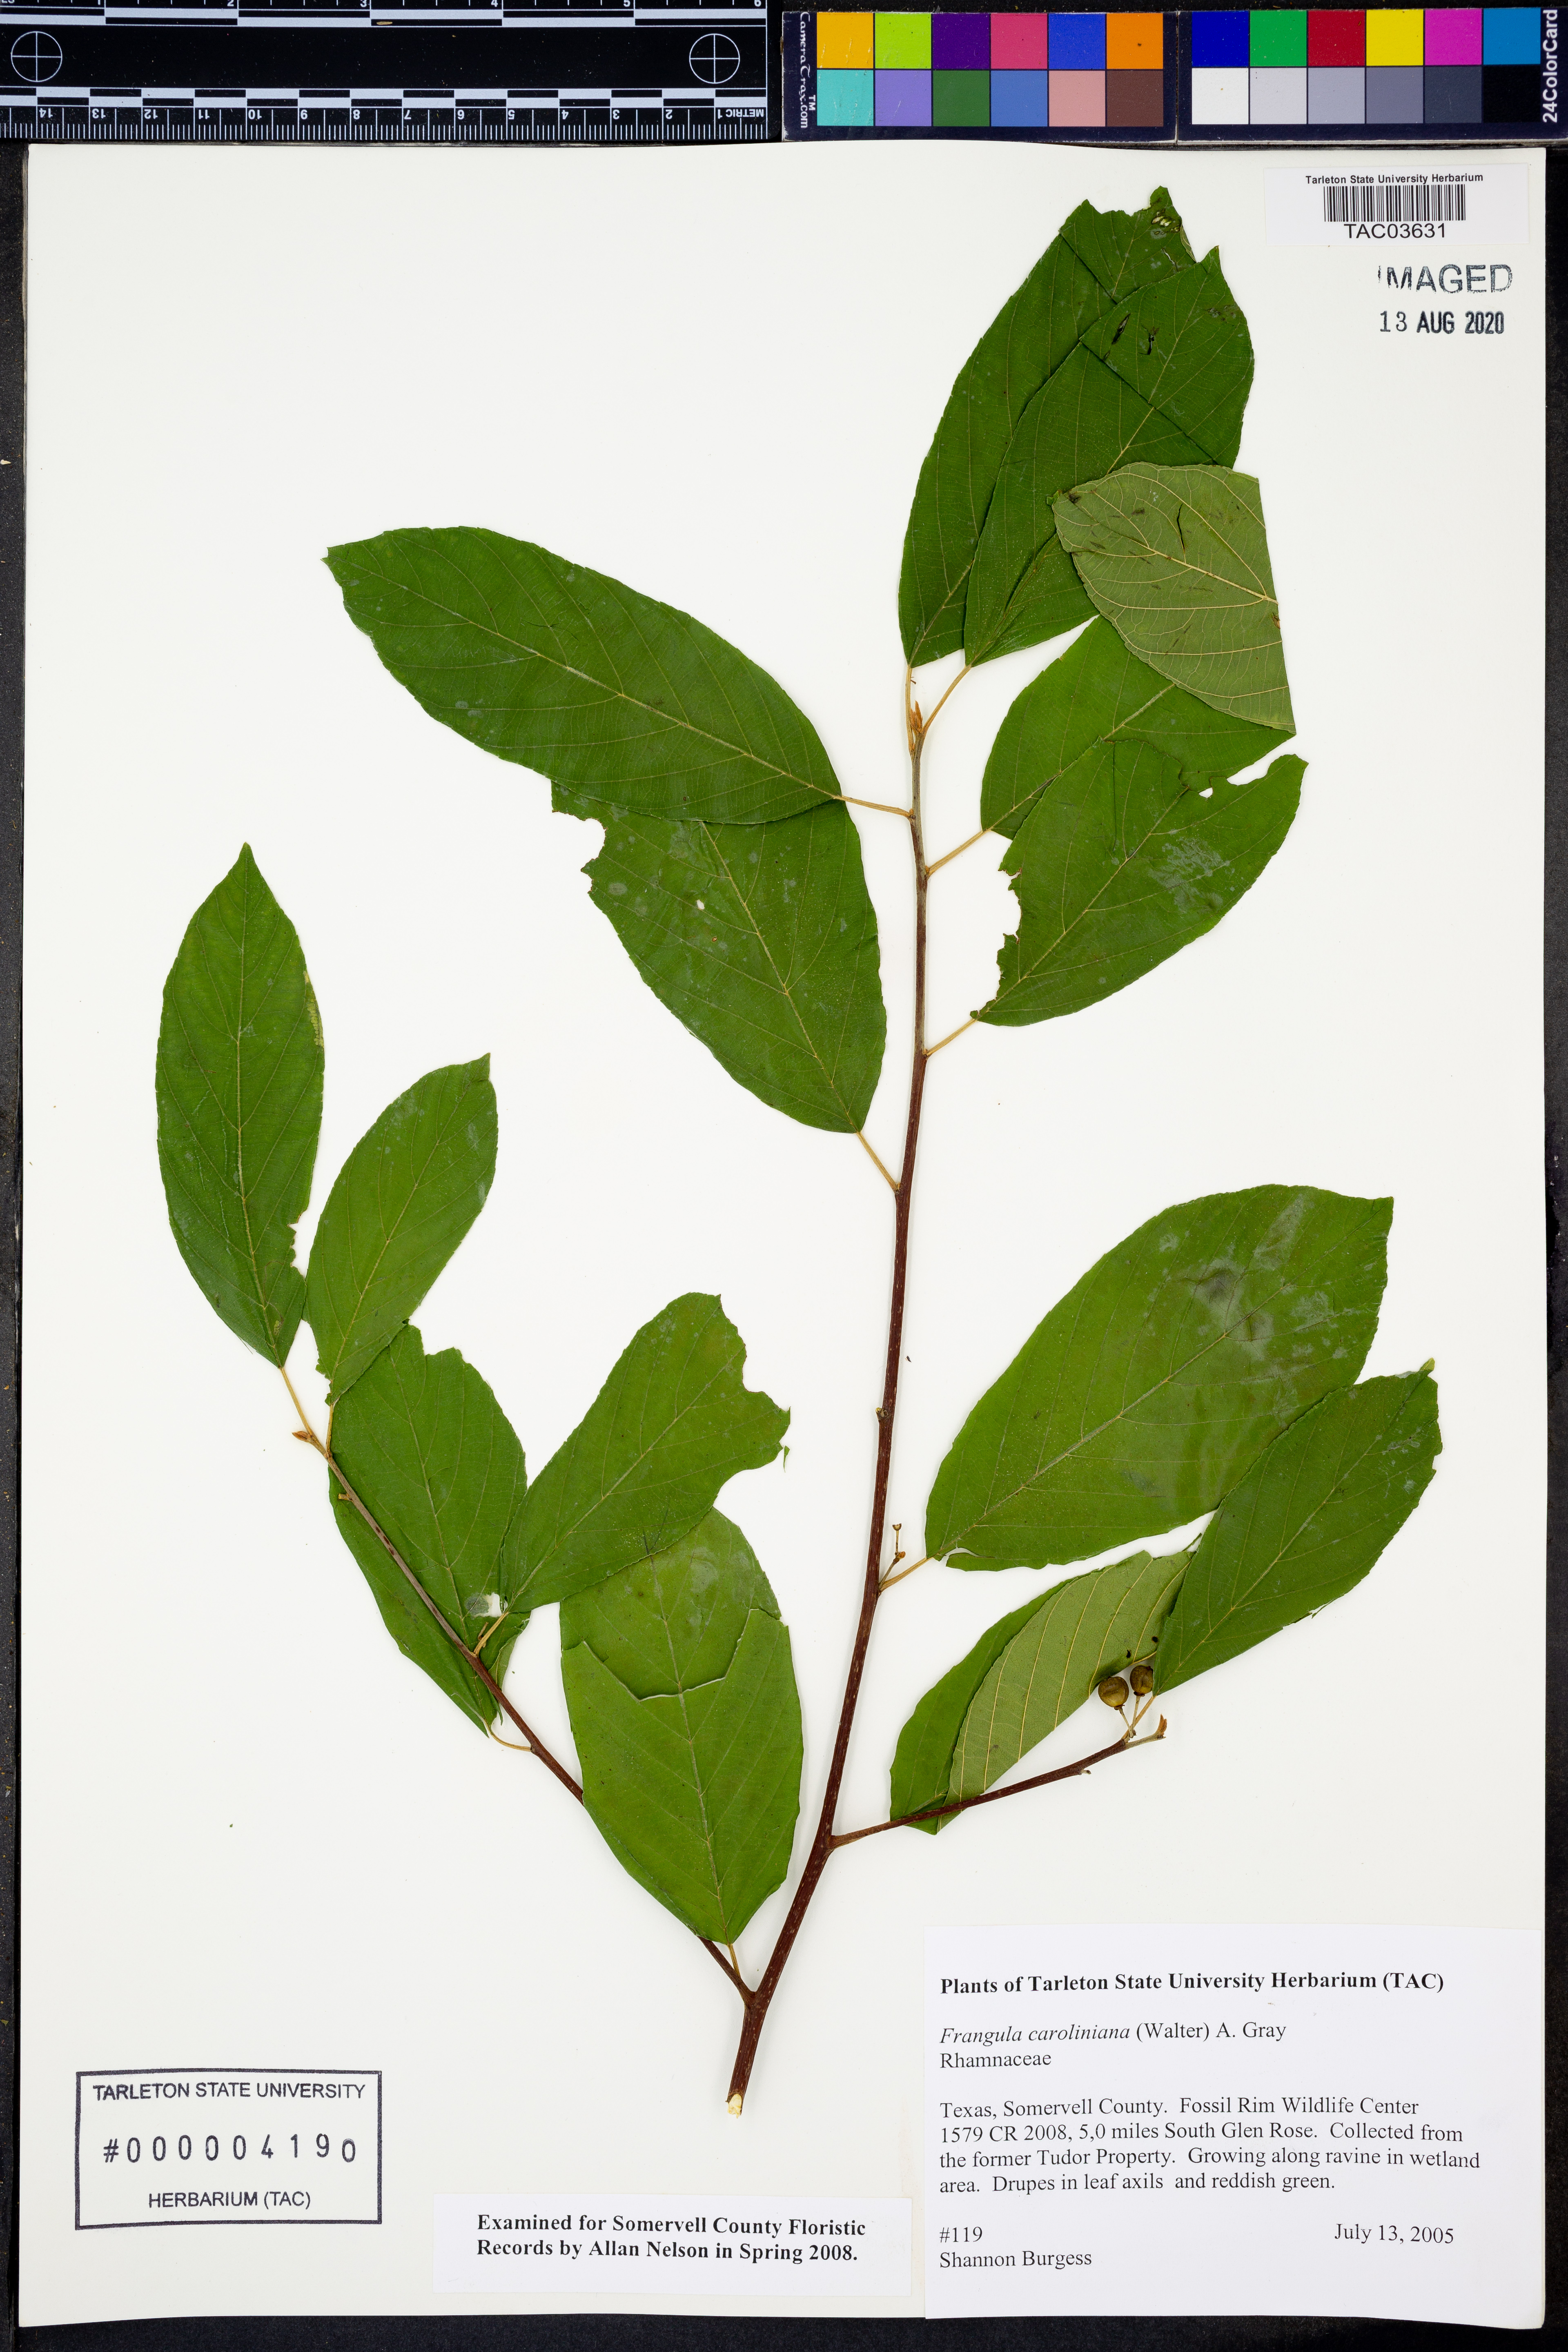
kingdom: Plantae
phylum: Tracheophyta
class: Magnoliopsida
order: Rosales
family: Rhamnaceae
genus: Frangula
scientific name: Frangula caroliniana
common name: Carolina buckthorn
